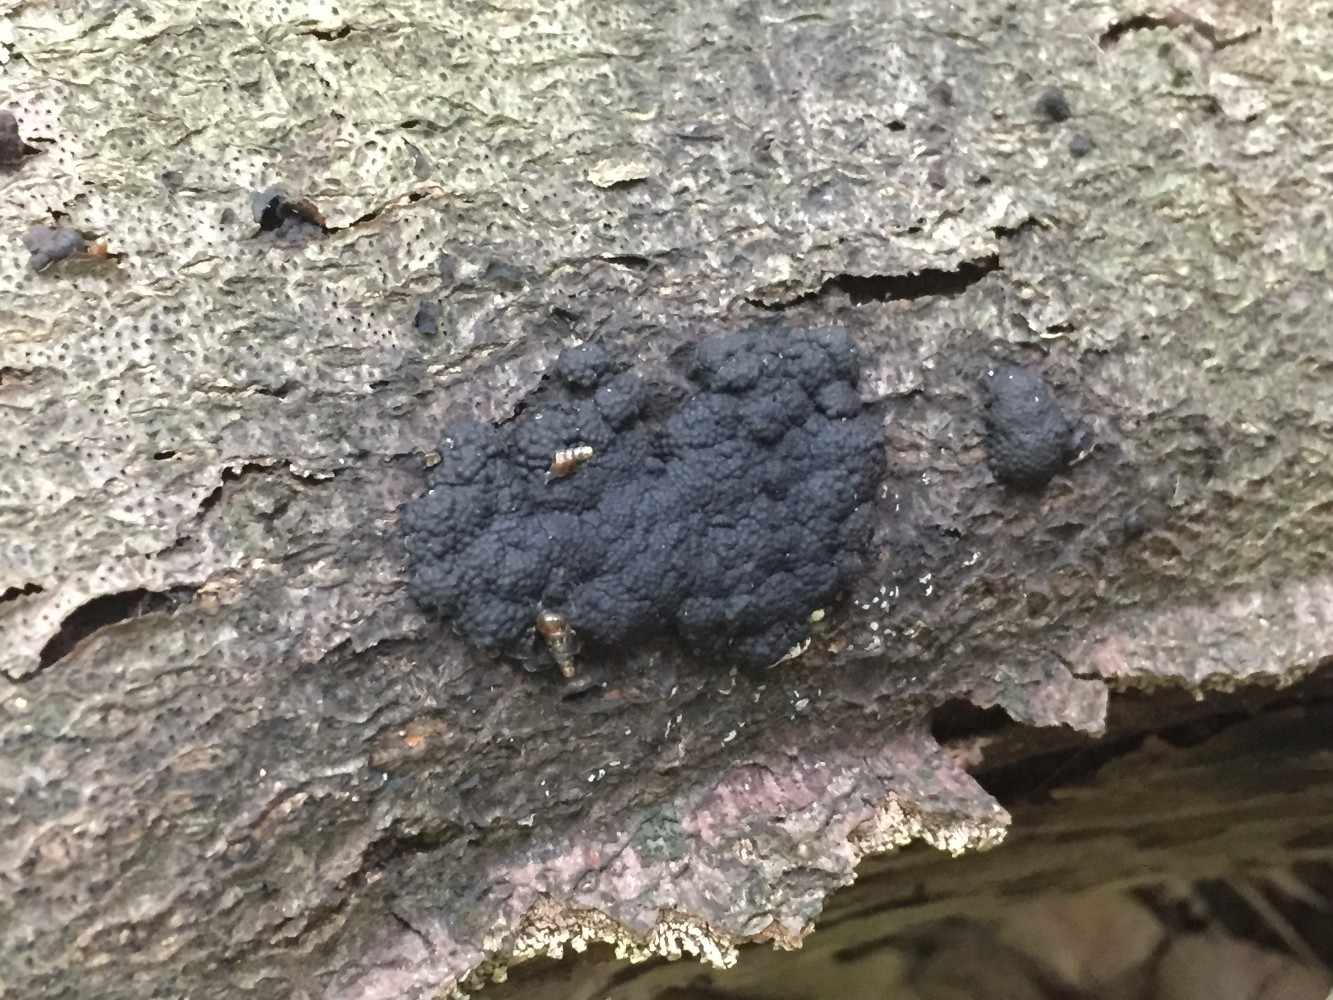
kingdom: Fungi
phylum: Ascomycota
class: Sordariomycetes
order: Xylariales
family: Hypoxylaceae
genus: Jackrogersella
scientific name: Jackrogersella cohaerens
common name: sammenflydende kulbær
